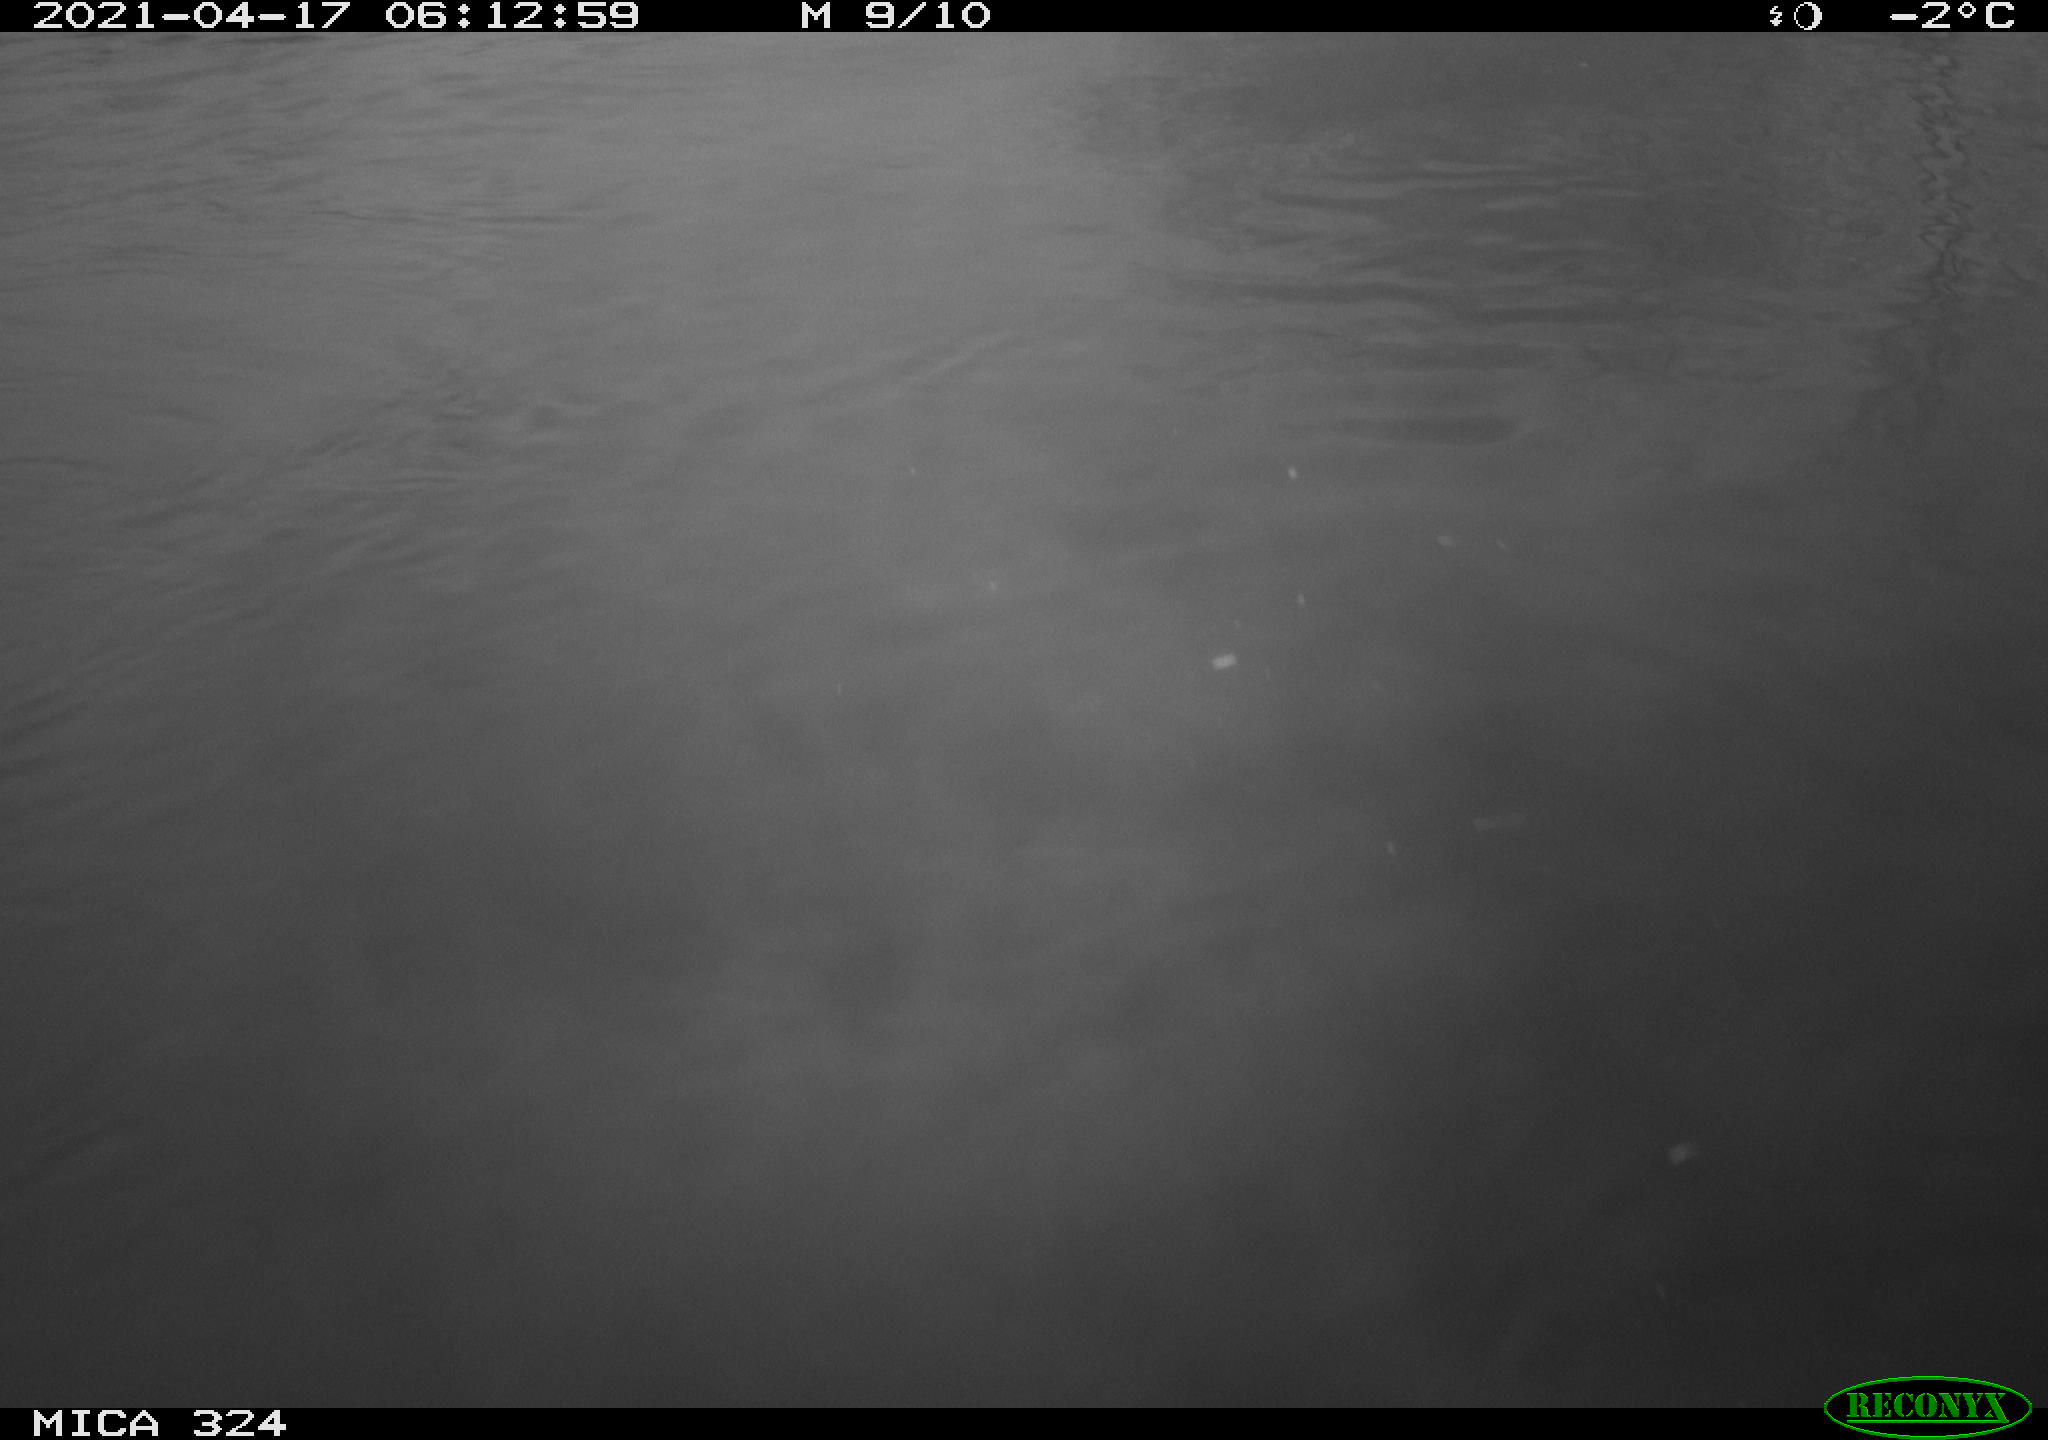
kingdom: Animalia
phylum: Chordata
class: Aves
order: Anseriformes
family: Anatidae
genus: Anas
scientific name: Anas platyrhynchos
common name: Mallard
